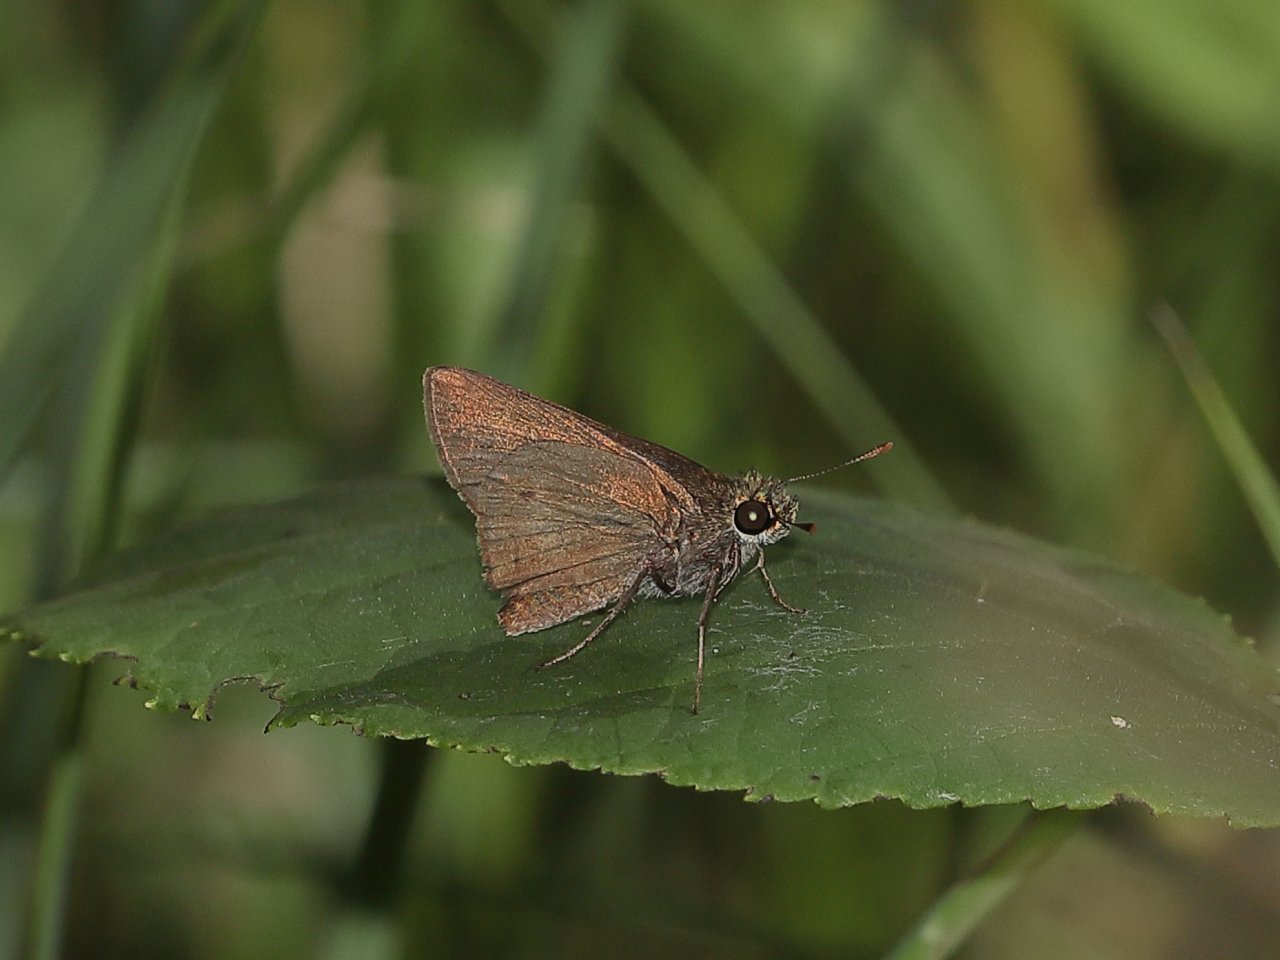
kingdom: Animalia
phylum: Arthropoda
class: Insecta
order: Lepidoptera
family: Hesperiidae
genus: Euphyes
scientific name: Euphyes vestris
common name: Dun Skipper
